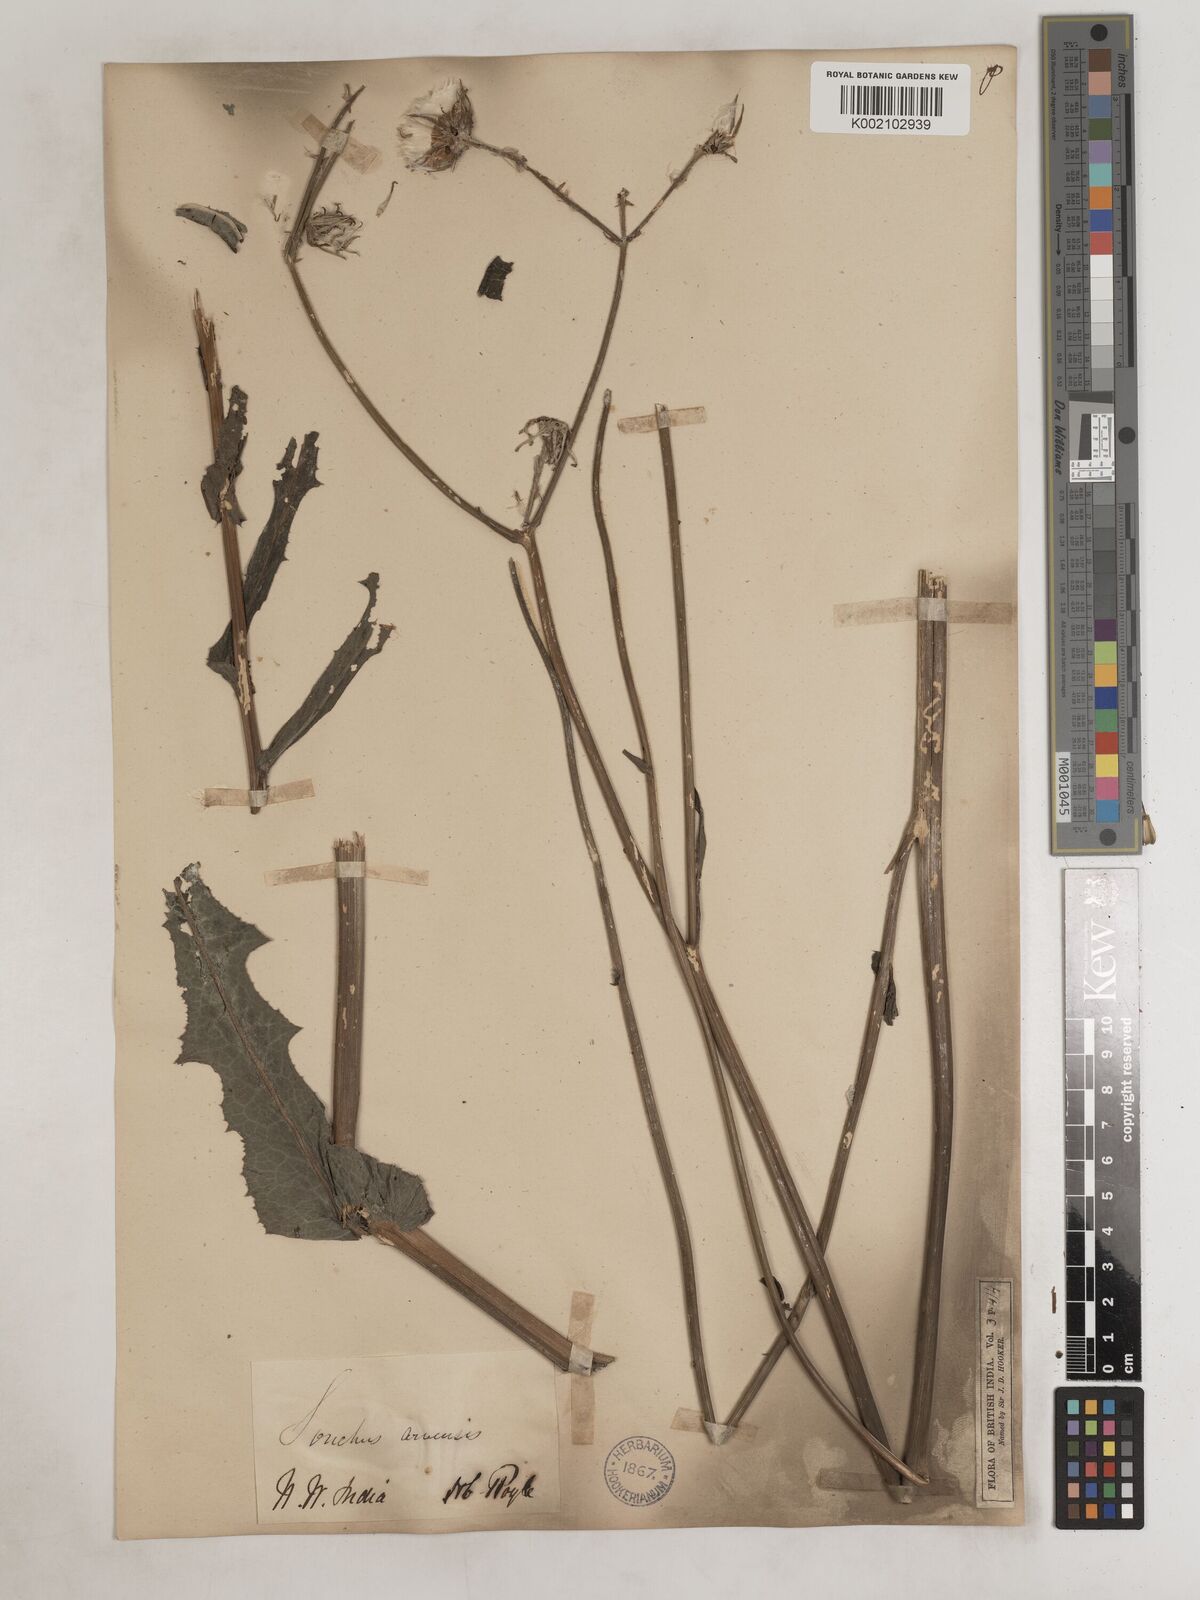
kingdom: Plantae
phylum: Tracheophyta
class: Magnoliopsida
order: Asterales
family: Asteraceae
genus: Sonchus
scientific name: Sonchus arvensis
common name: Perennial sow-thistle
